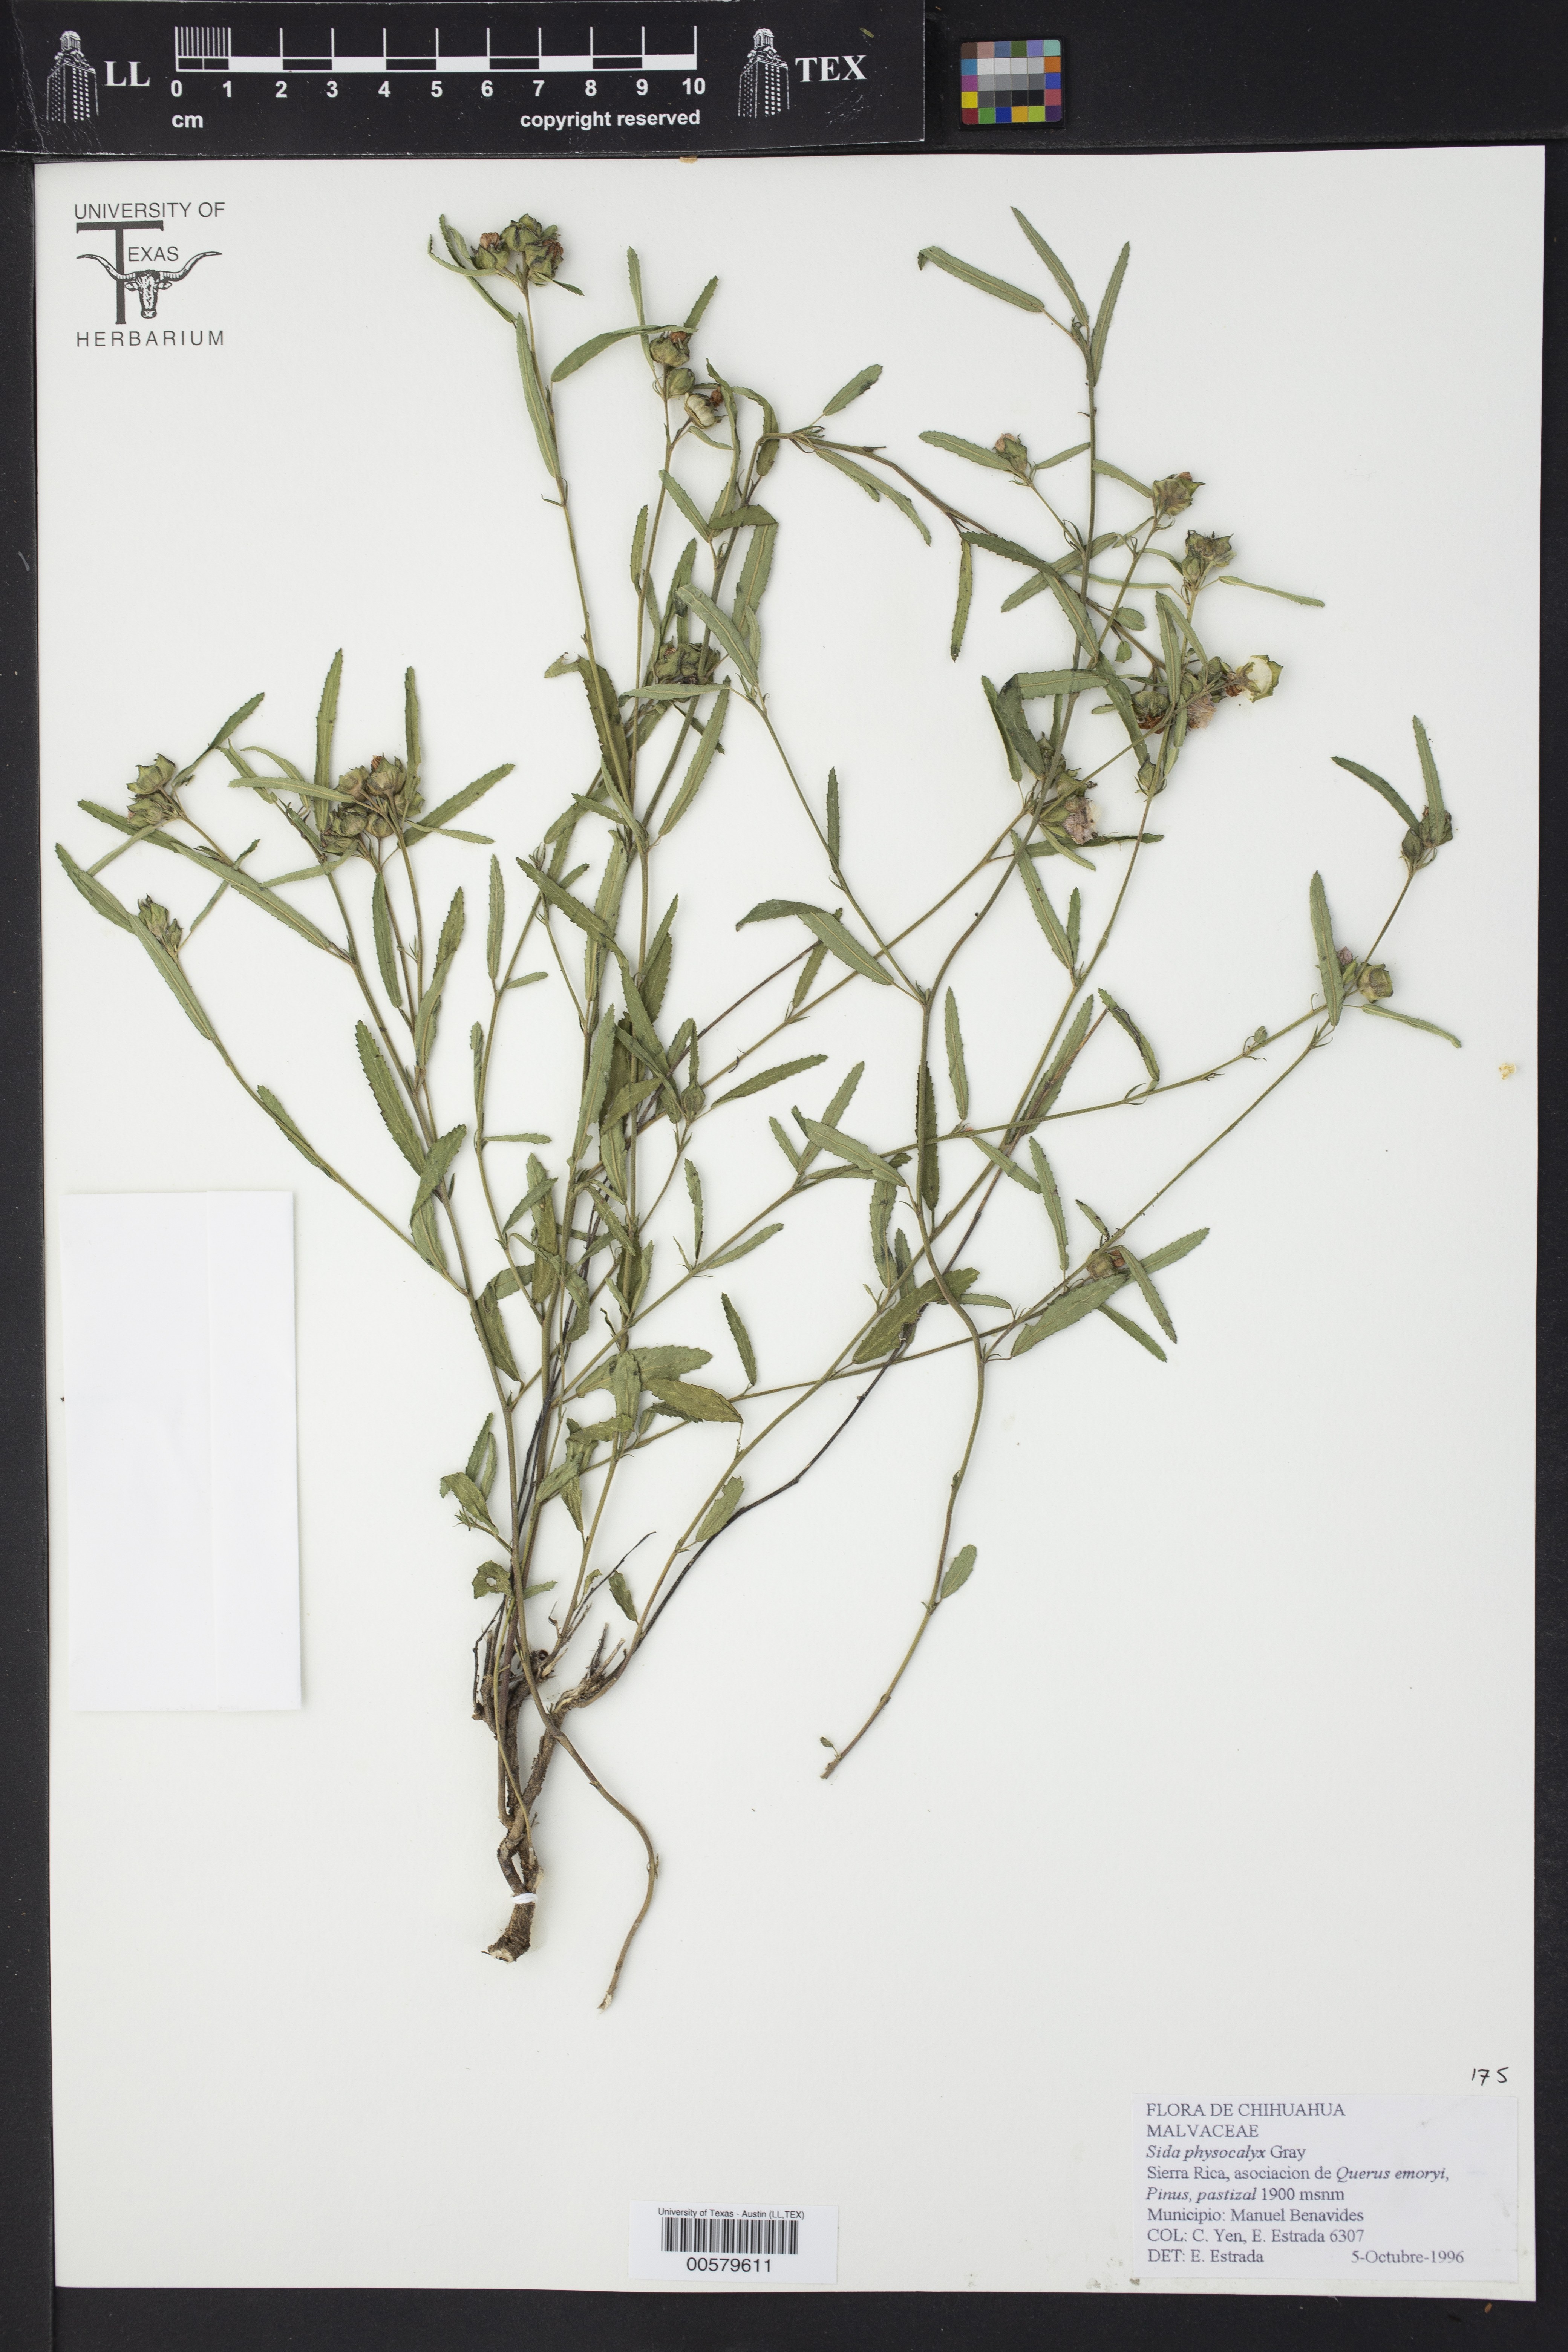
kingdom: Plantae
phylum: Tracheophyta
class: Magnoliopsida
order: Malvales
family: Malvaceae
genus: Anoda
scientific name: Anoda cristata
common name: Spurred anoda
